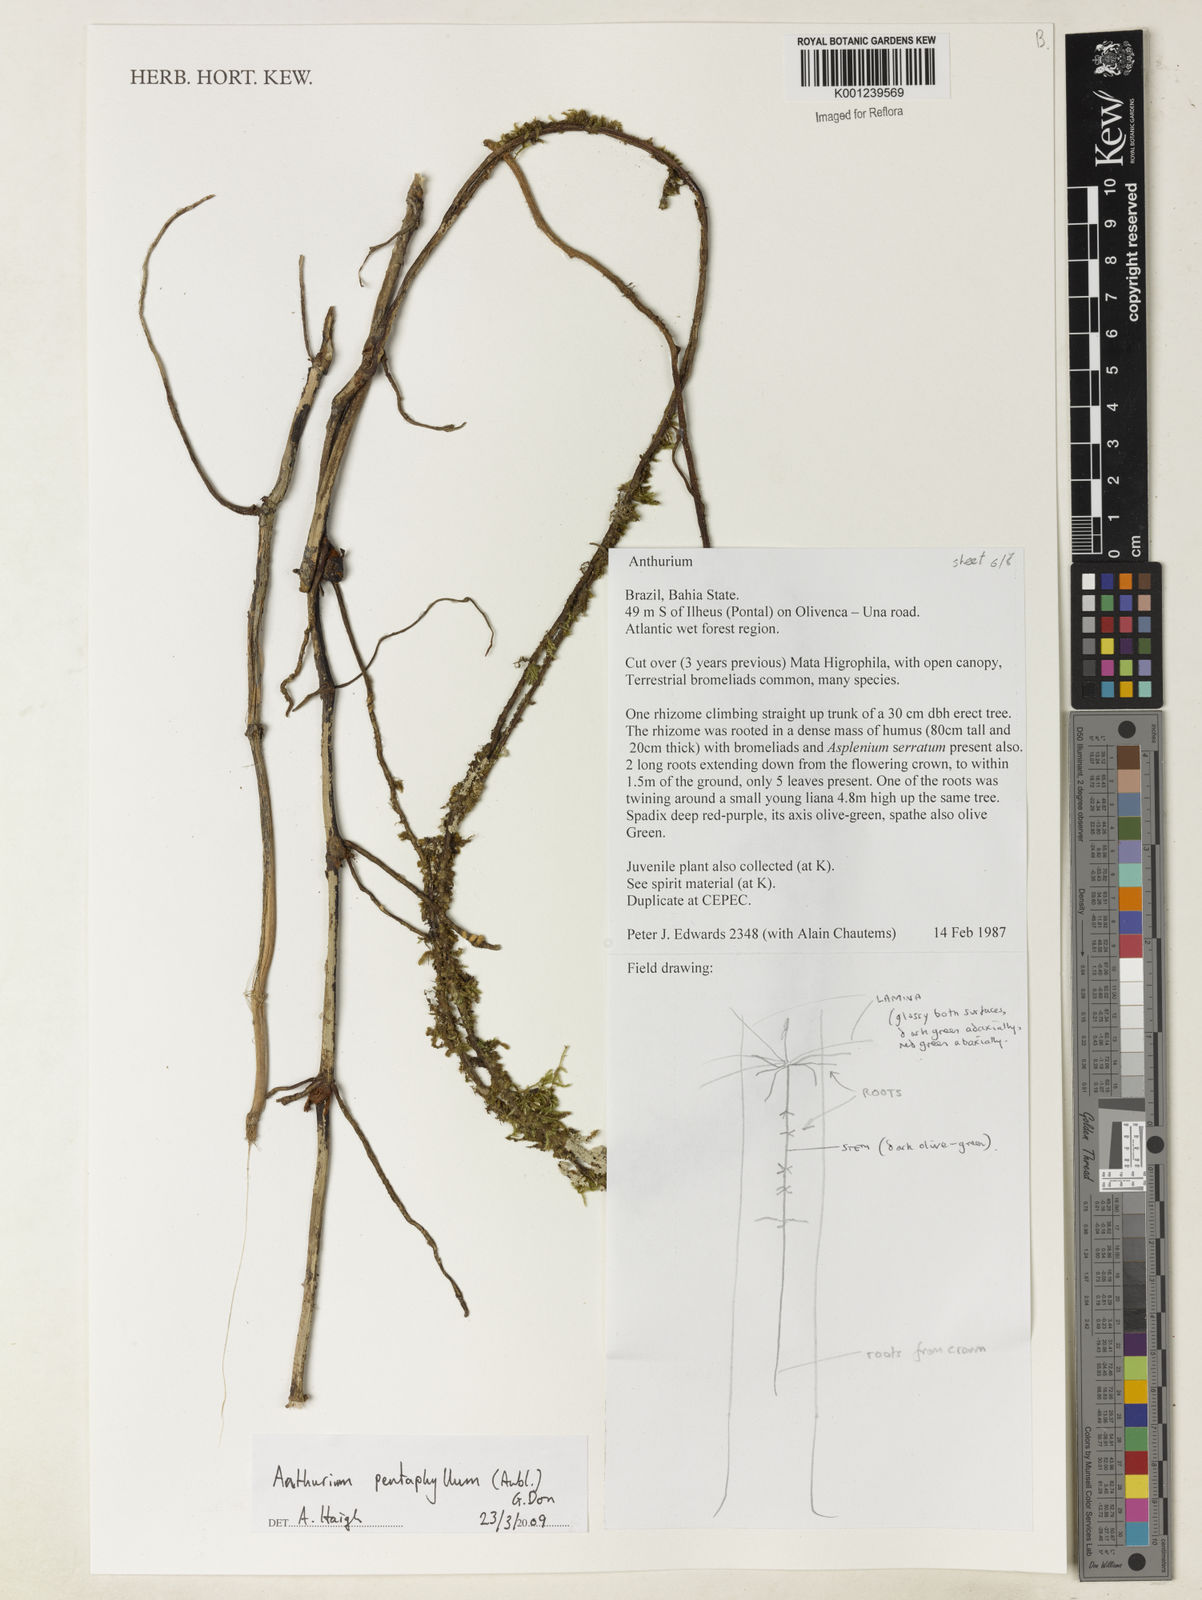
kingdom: Plantae
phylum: Tracheophyta
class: Liliopsida
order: Alismatales
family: Araceae
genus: Anthurium
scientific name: Anthurium pentaphyllum
